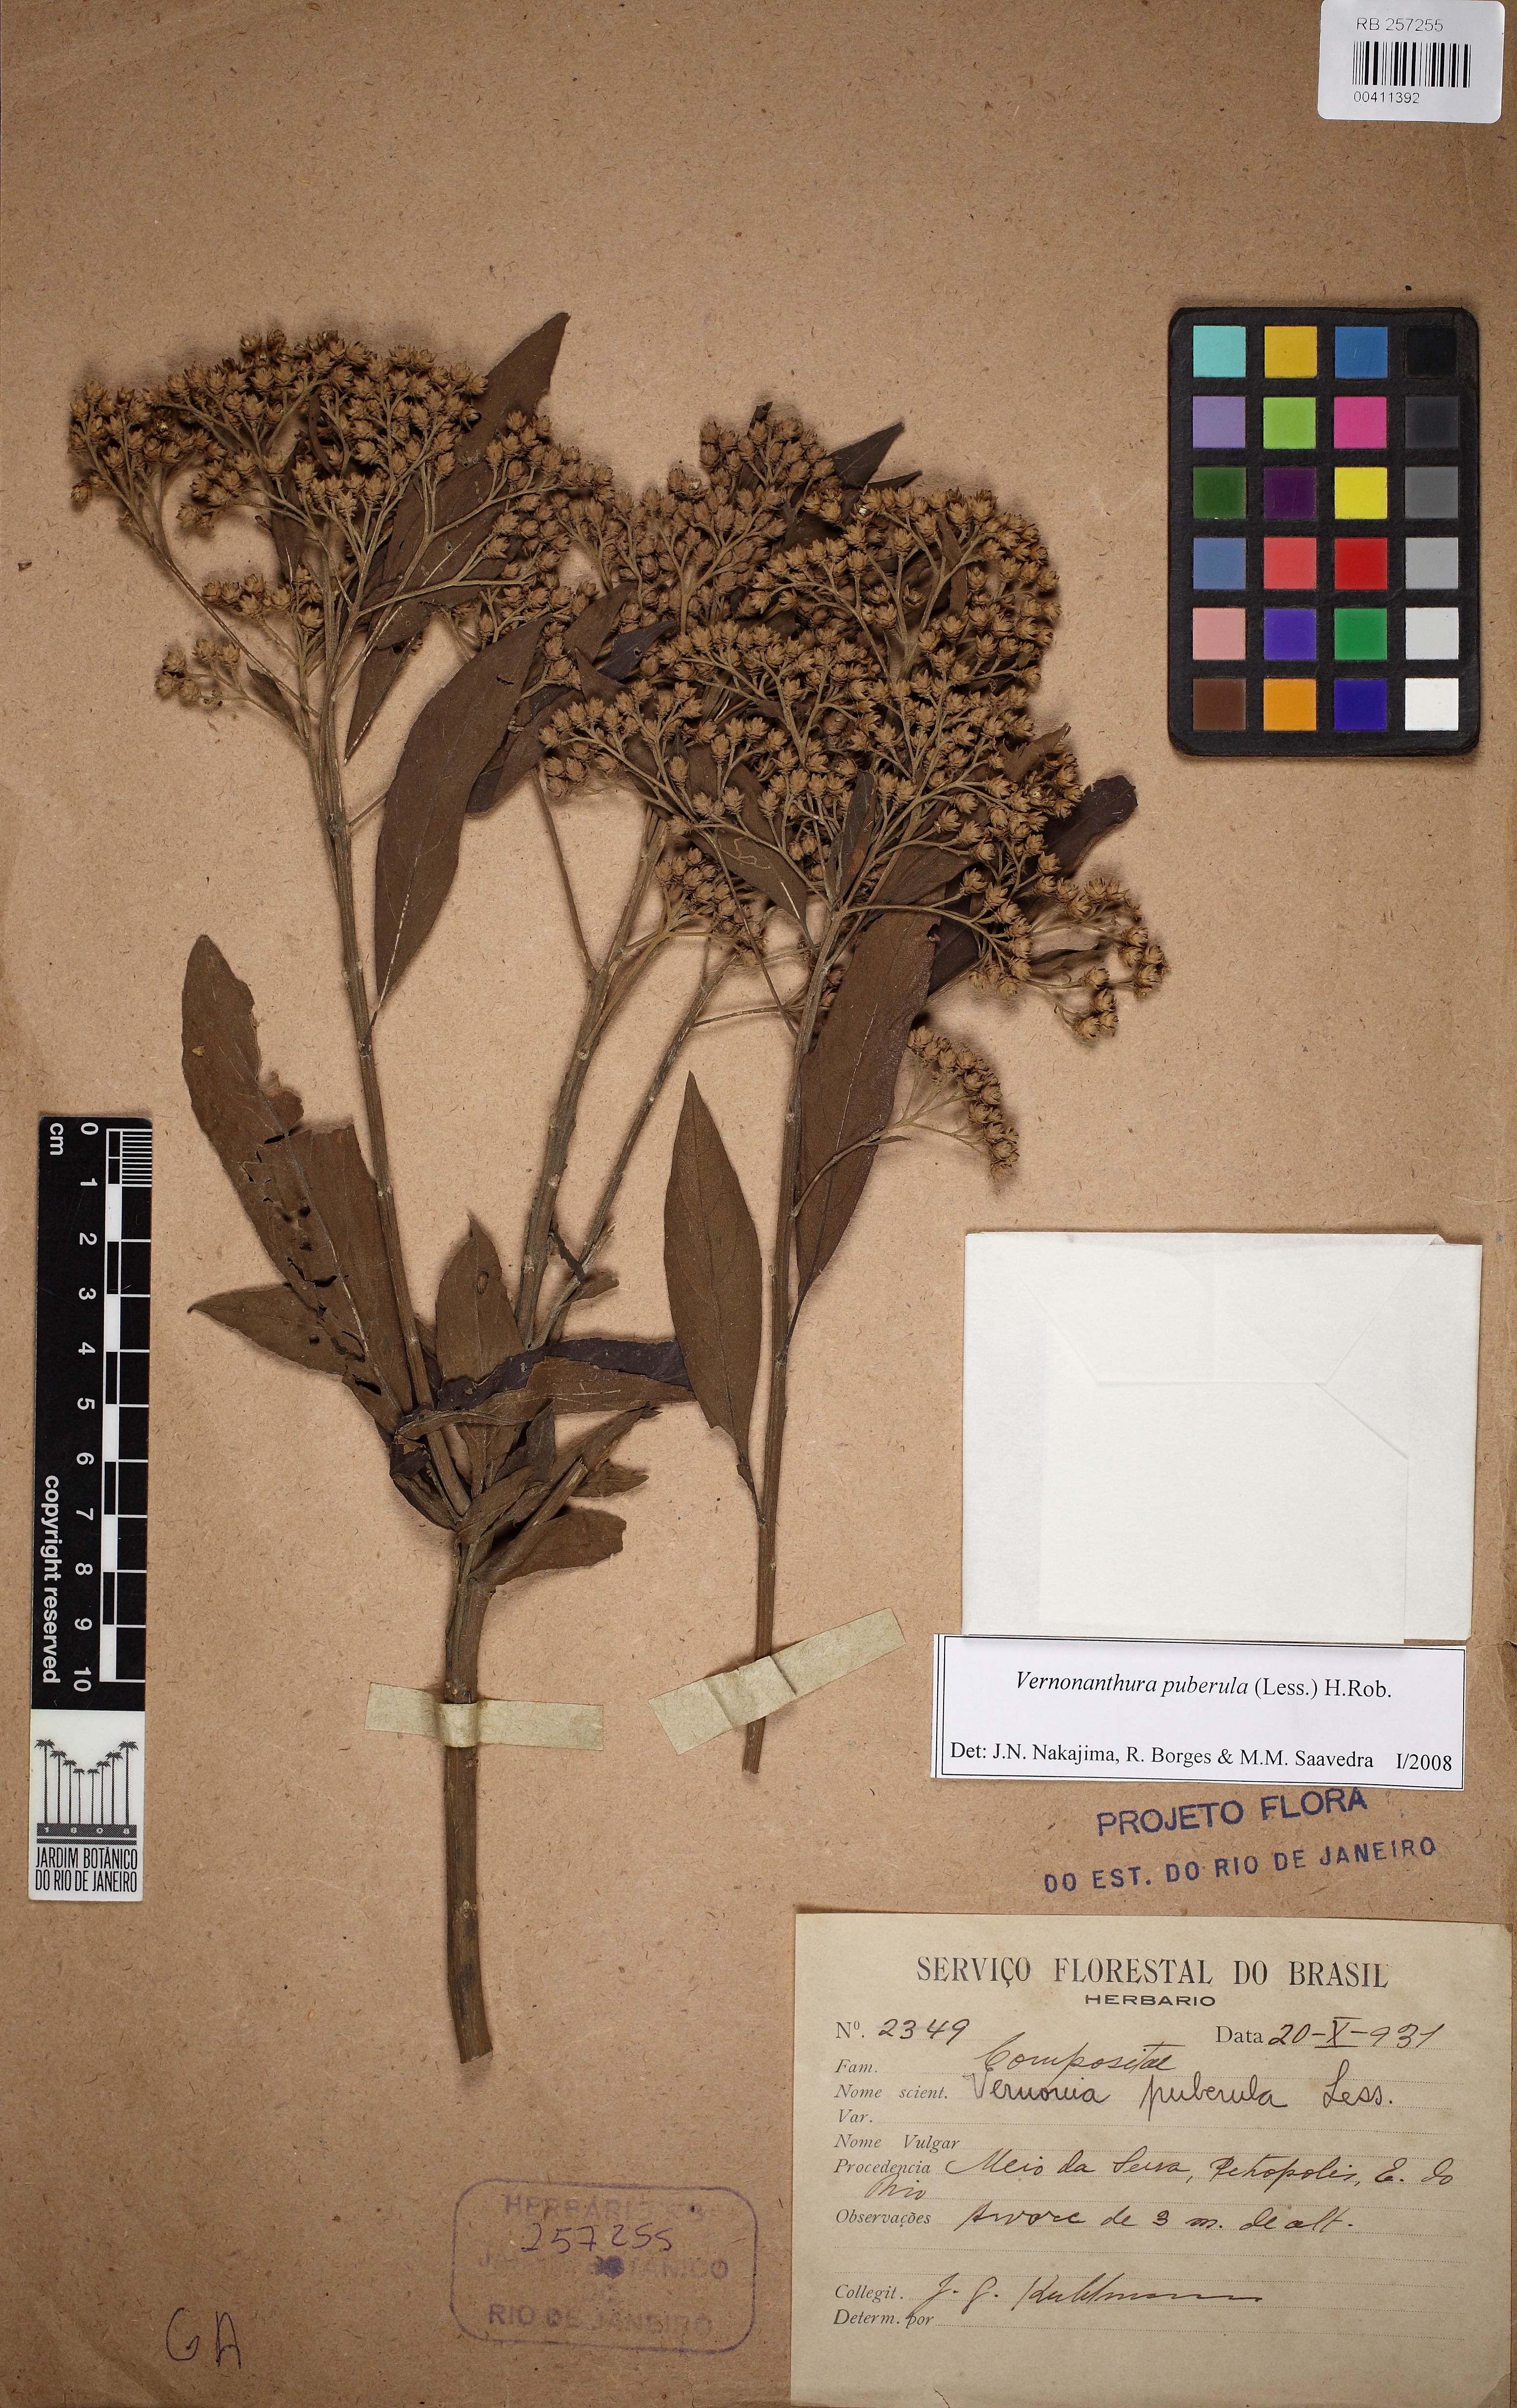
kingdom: Plantae
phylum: Tracheophyta
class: Magnoliopsida
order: Asterales
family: Asteraceae
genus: Vernonanthura
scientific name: Vernonanthura puberula
